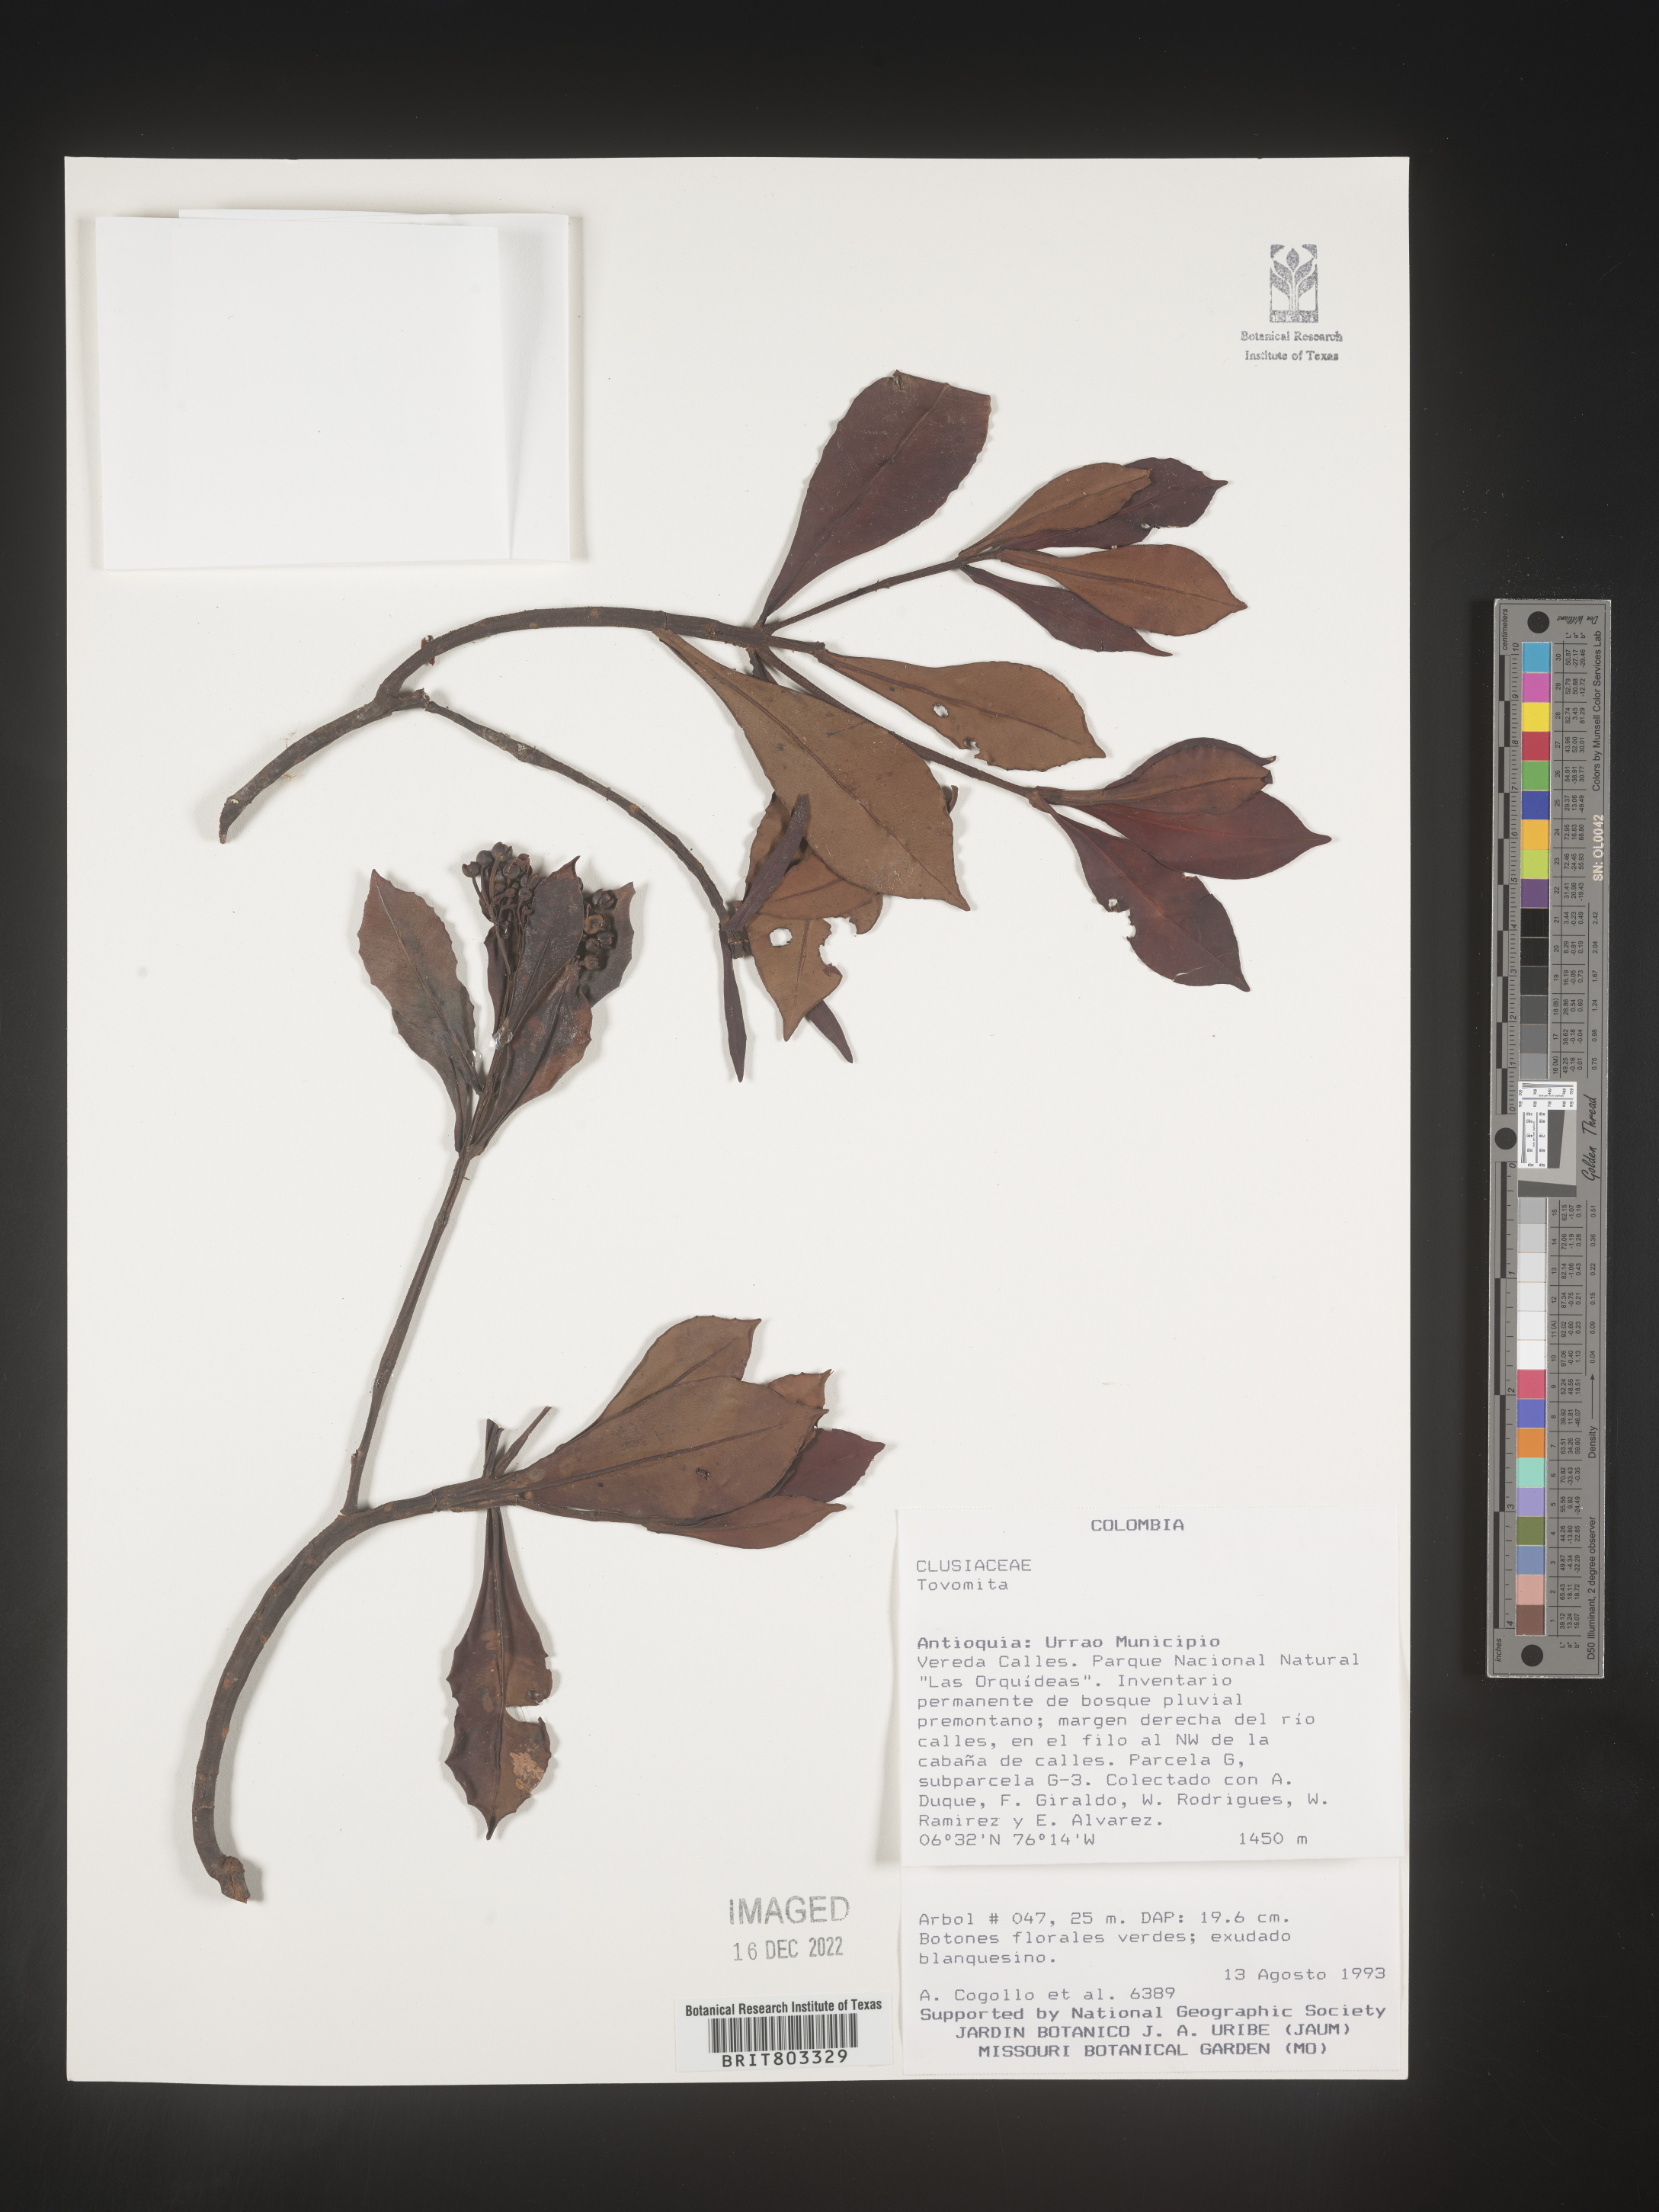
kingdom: Plantae
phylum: Tracheophyta
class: Magnoliopsida
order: Malpighiales
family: Clusiaceae
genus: Tovomita
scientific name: Tovomita
